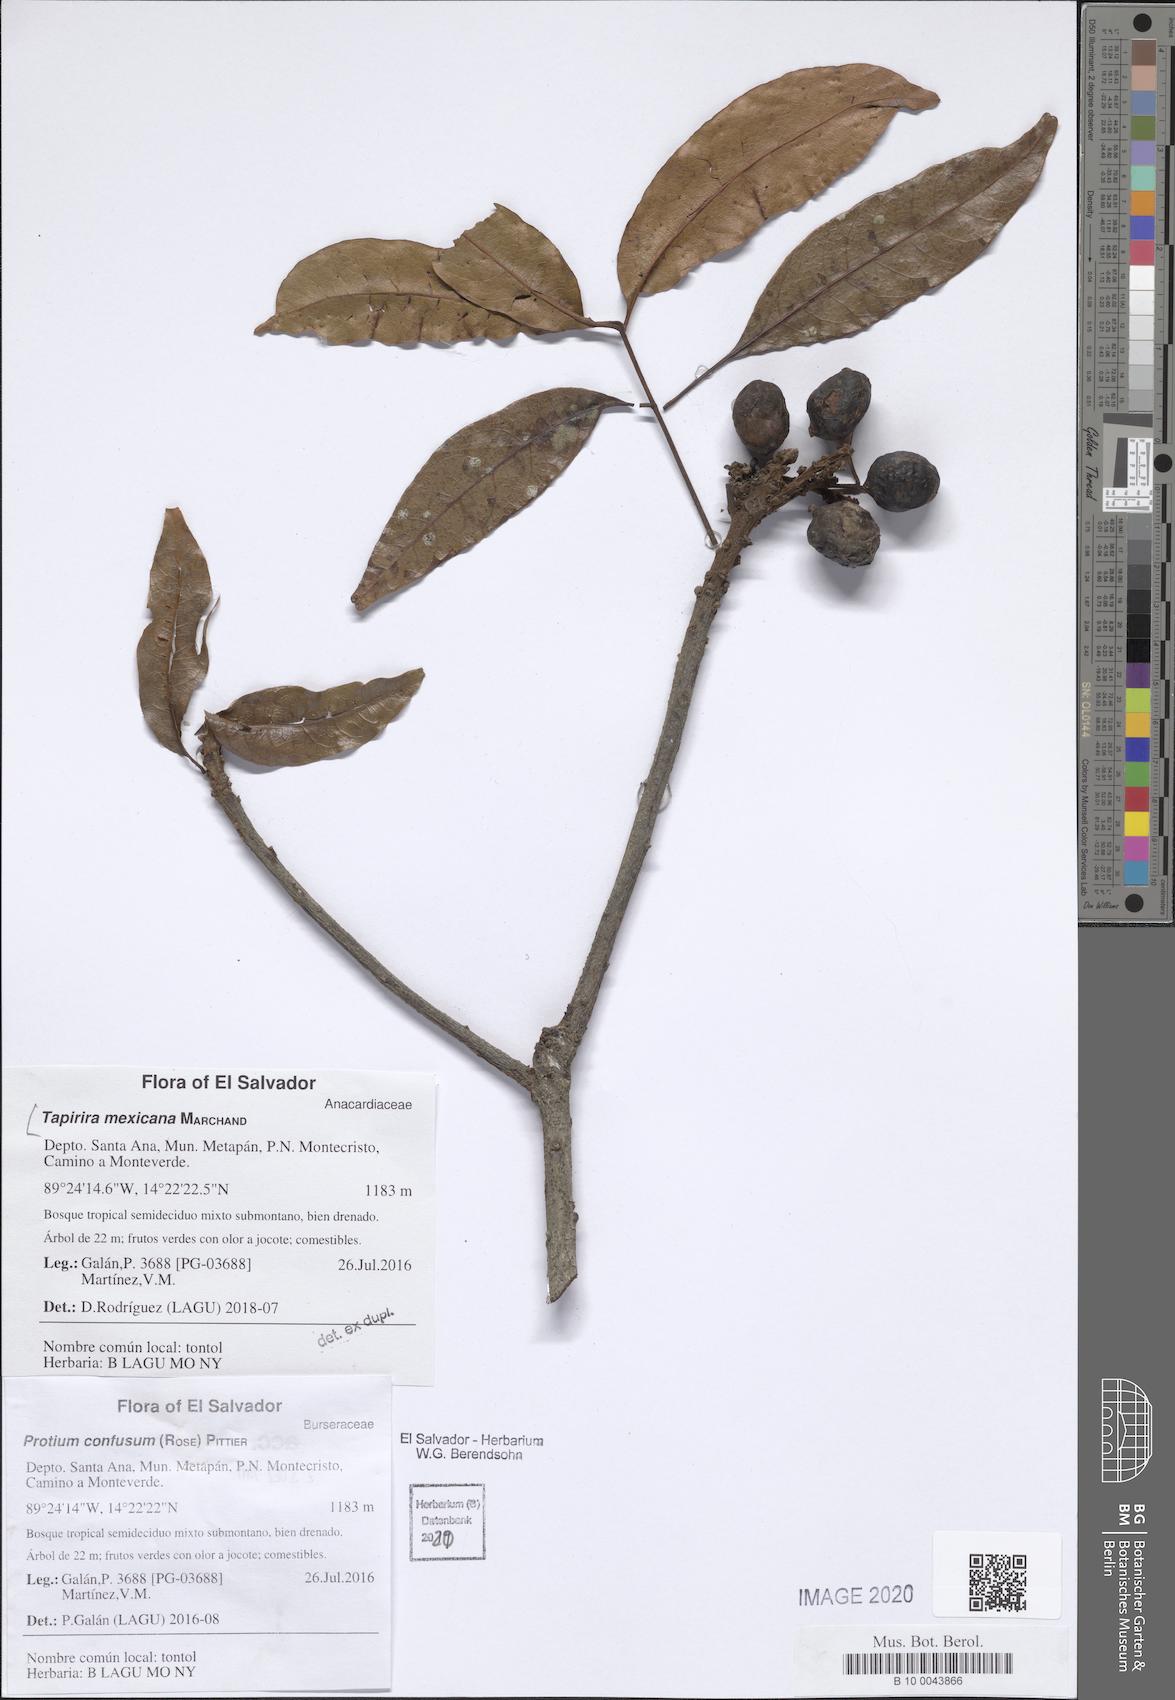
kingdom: Plantae
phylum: Tracheophyta
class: Magnoliopsida
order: Sapindales
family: Anacardiaceae
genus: Tapirira
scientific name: Tapirira mexicana
